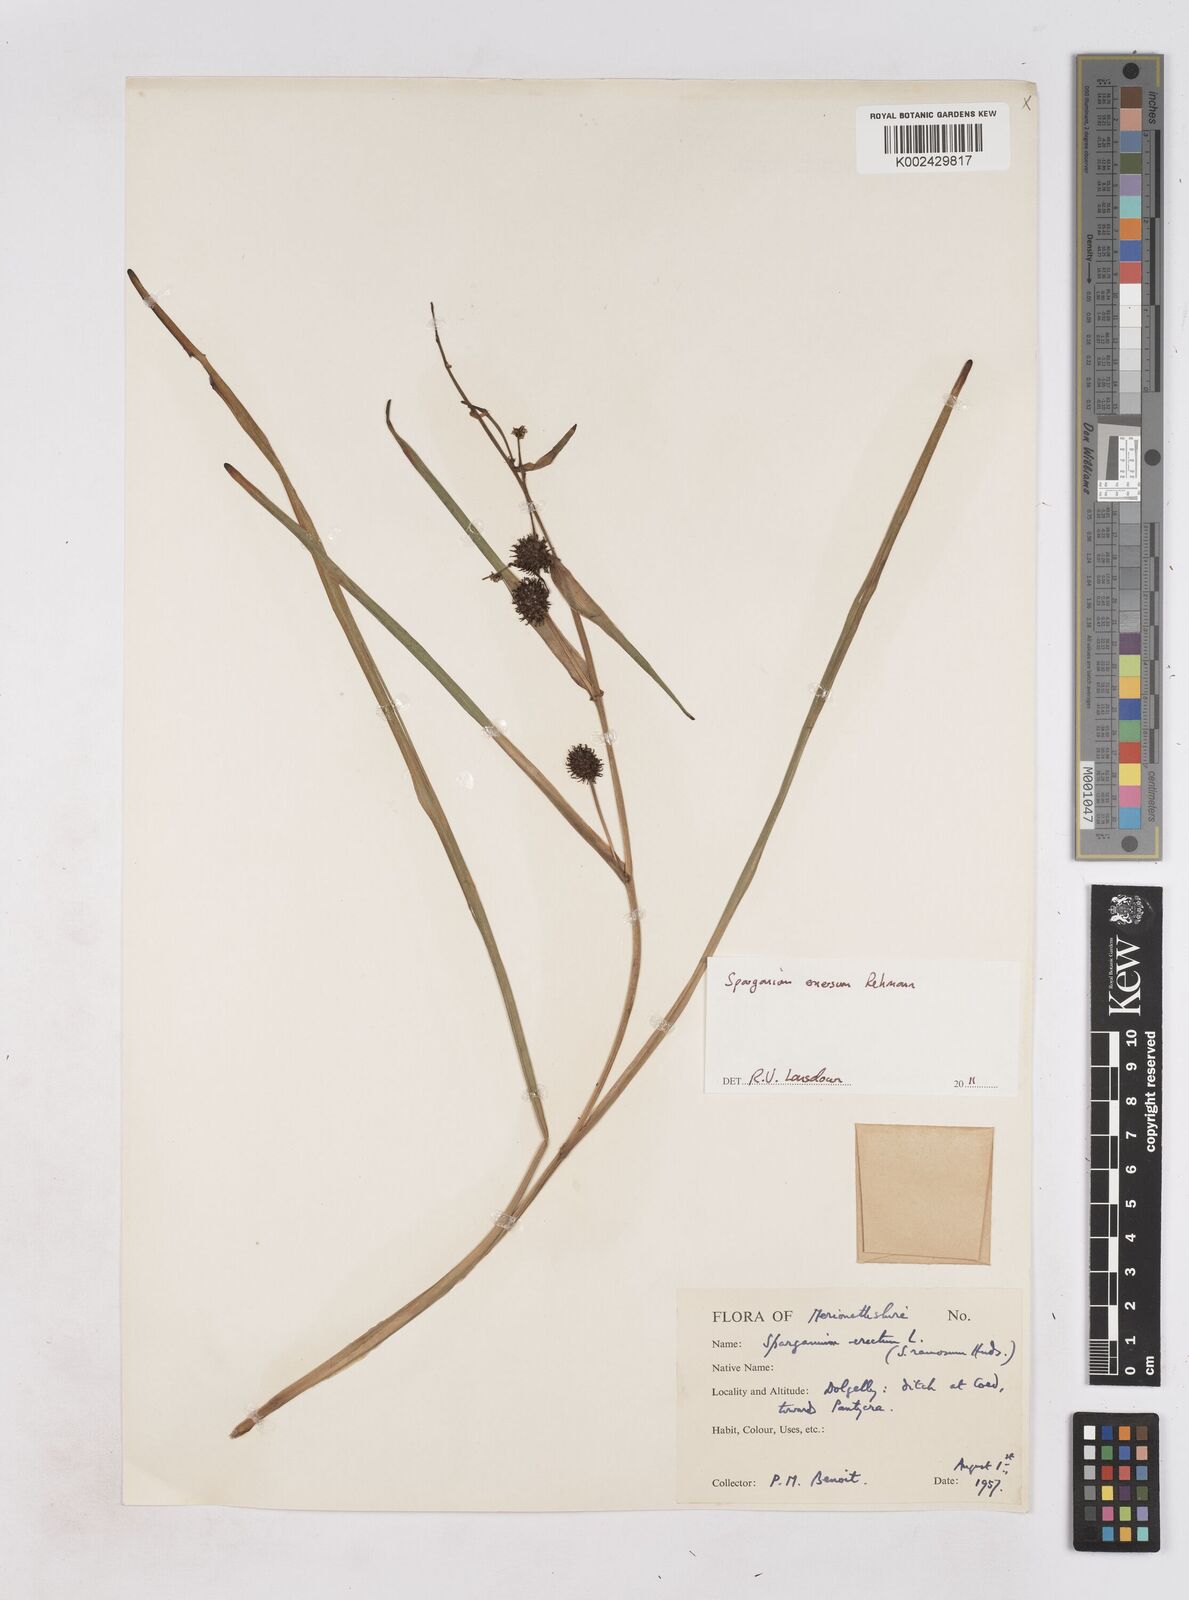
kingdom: Plantae
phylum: Tracheophyta
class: Liliopsida
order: Poales
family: Typhaceae
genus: Sparganium
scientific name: Sparganium emersum
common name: Unbranched bur-reed
